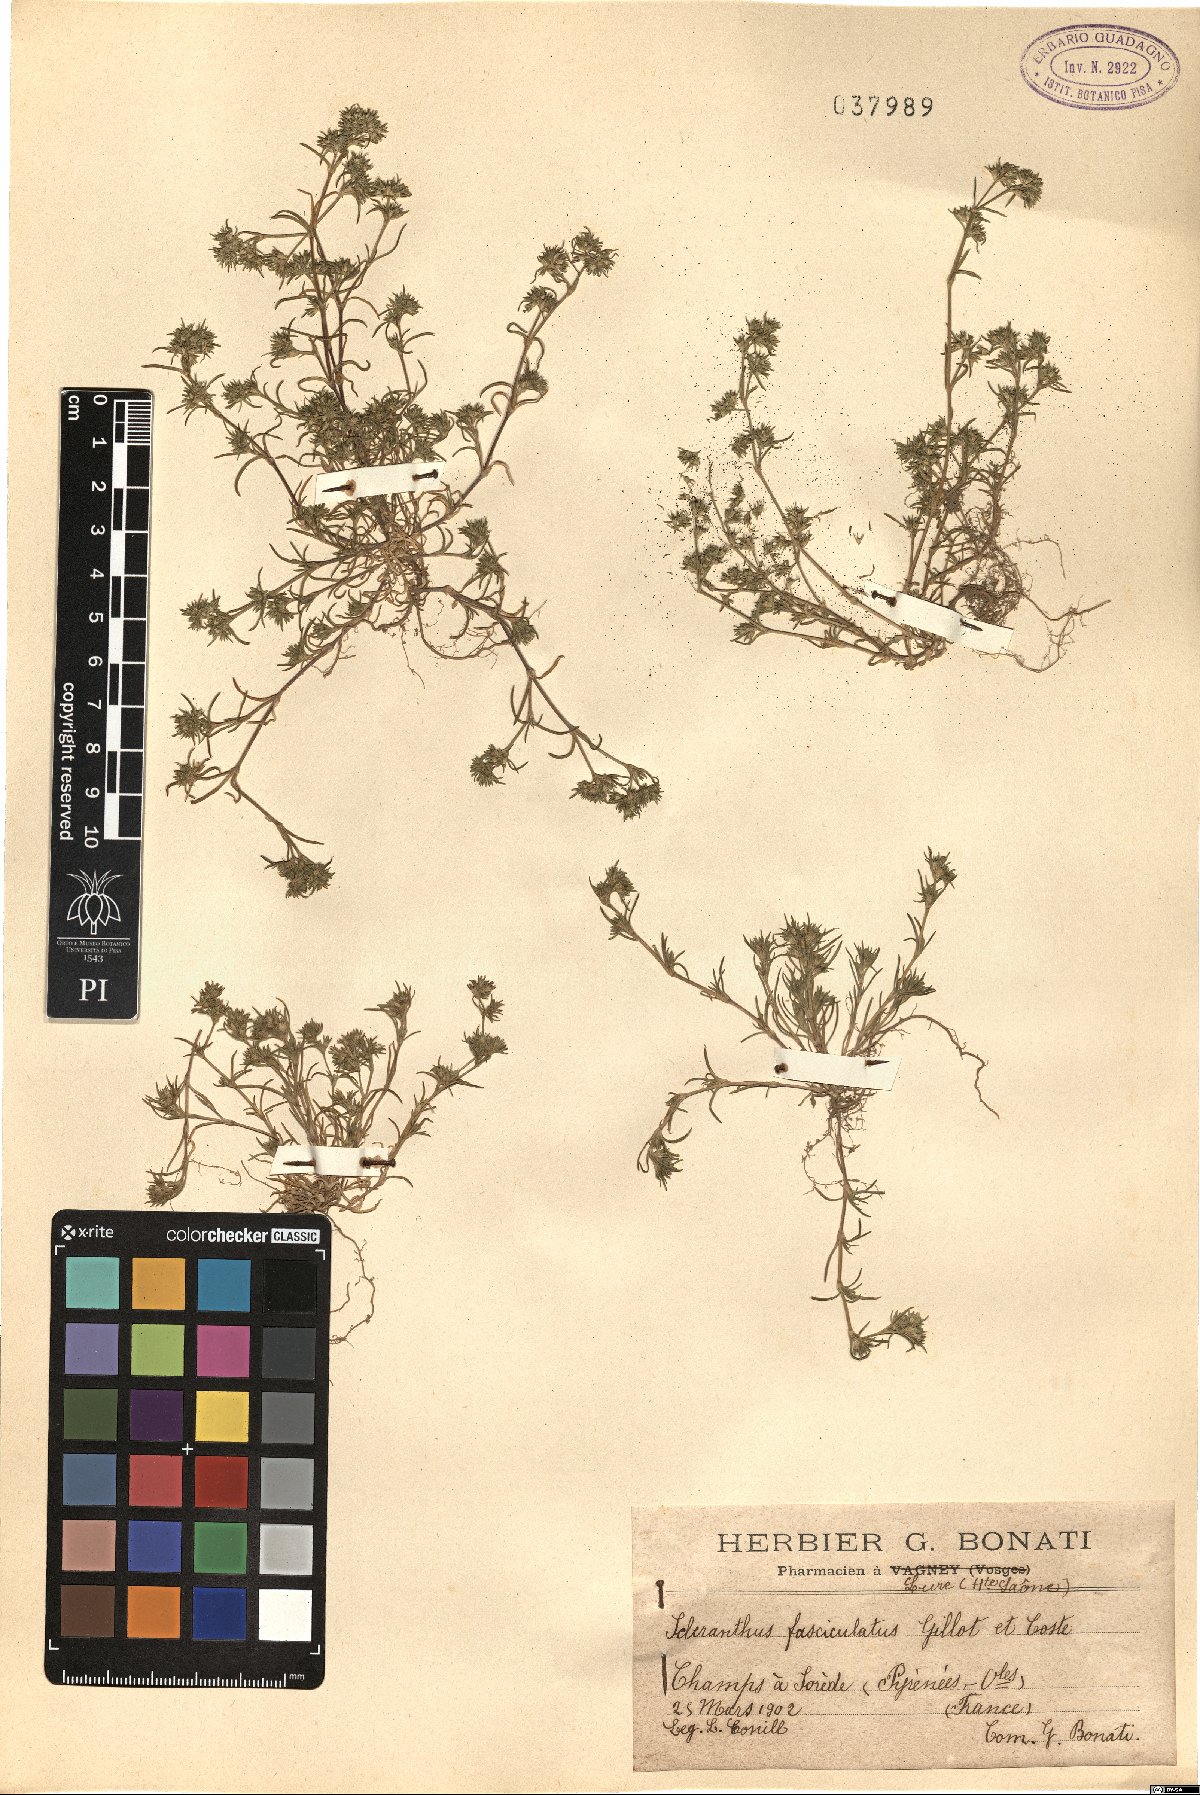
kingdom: Plantae
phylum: Tracheophyta
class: Magnoliopsida
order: Caryophyllales
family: Caryophyllaceae
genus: Scleranthus
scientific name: Scleranthus fasciculatus
